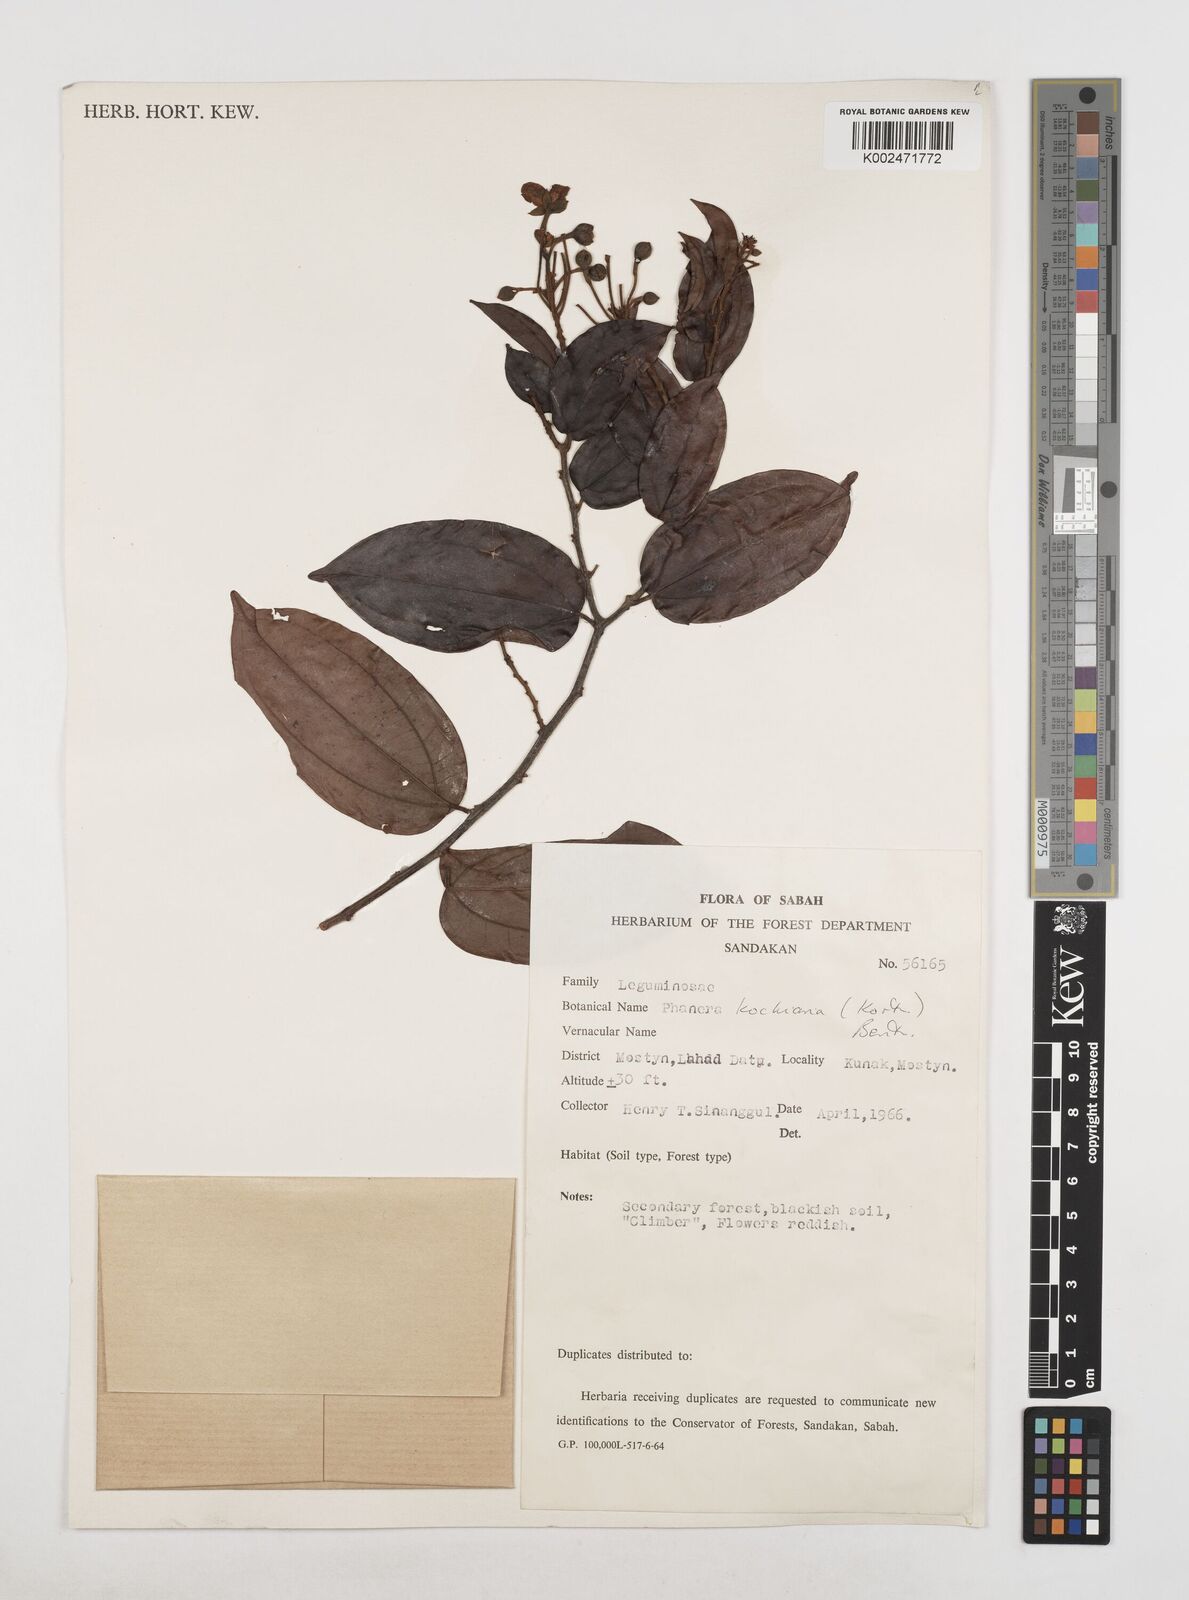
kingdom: Plantae
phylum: Tracheophyta
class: Magnoliopsida
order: Fabales
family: Fabaceae
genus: Phanera
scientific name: Phanera kockiana
